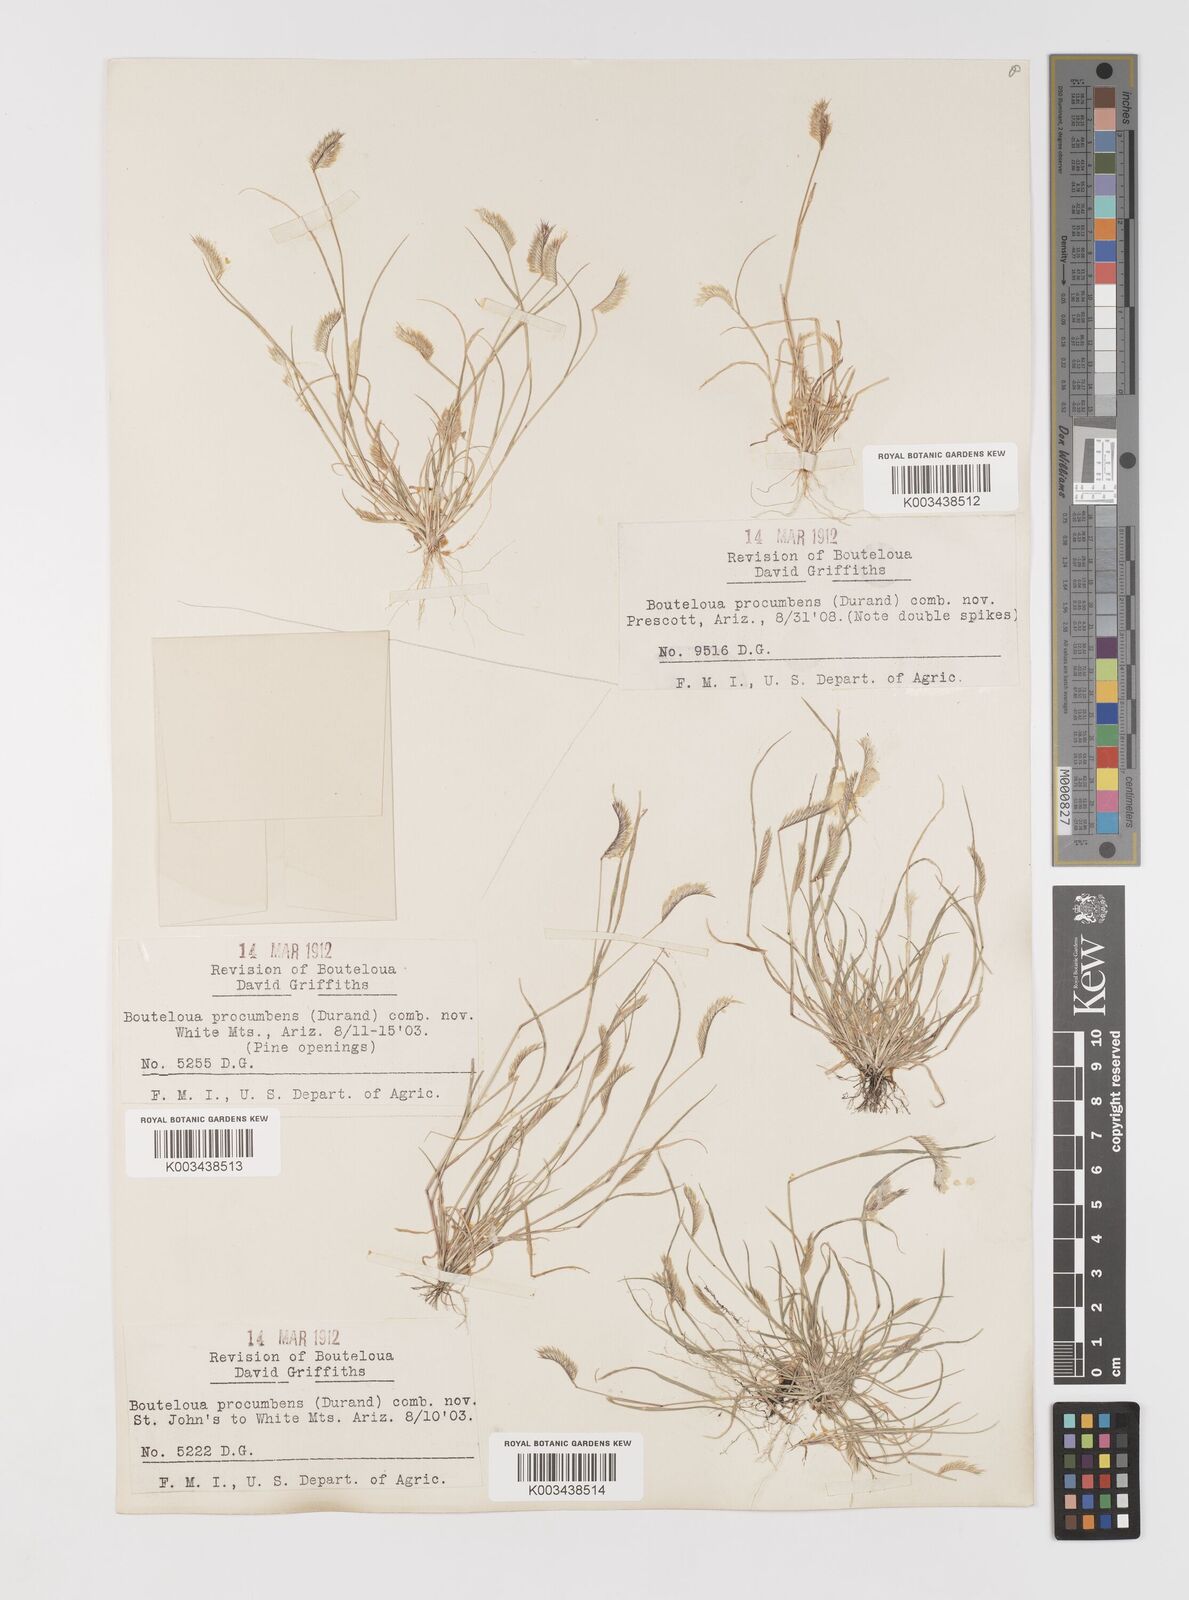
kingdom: Plantae
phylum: Tracheophyta
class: Liliopsida
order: Poales
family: Poaceae
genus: Bouteloua
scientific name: Bouteloua simplex
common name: Mat grama
